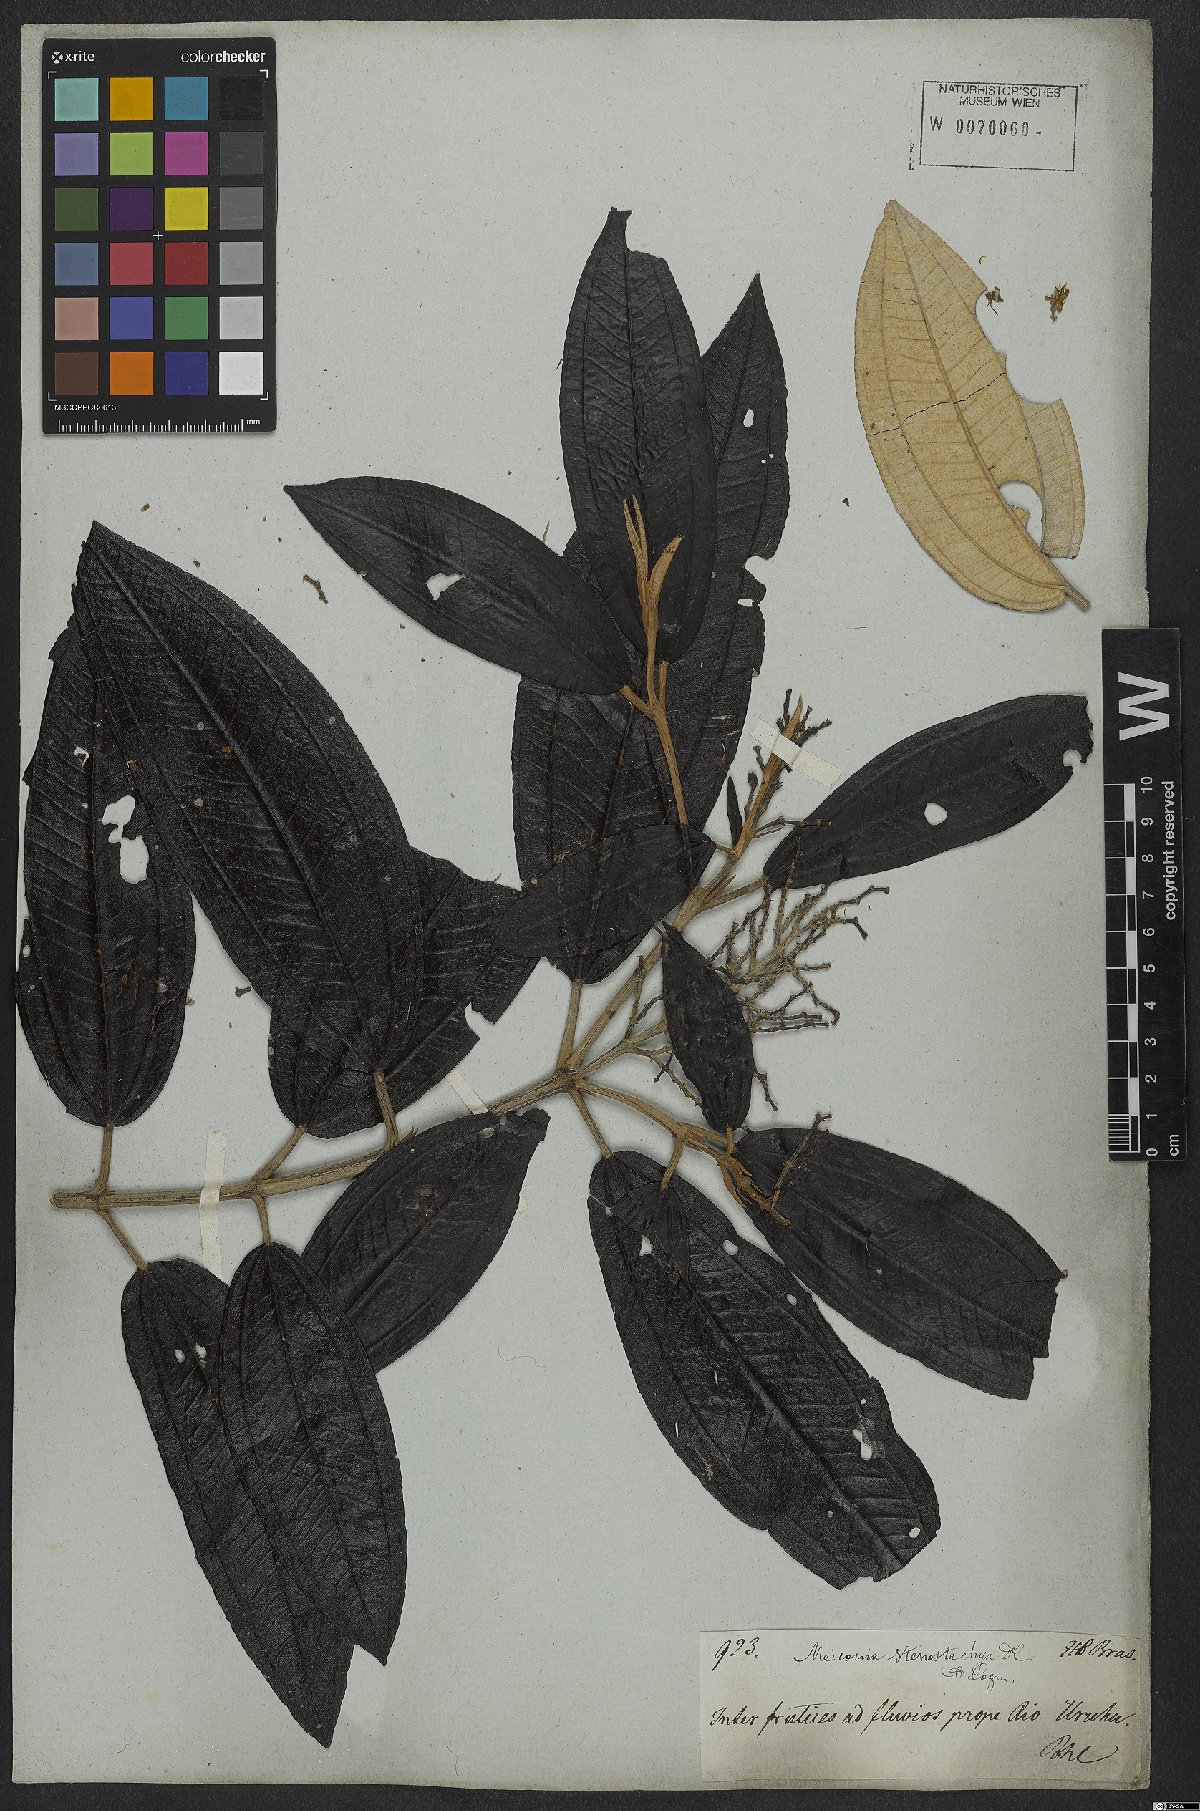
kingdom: Plantae
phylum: Tracheophyta
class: Magnoliopsida
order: Myrtales
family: Melastomataceae
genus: Miconia
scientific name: Miconia stenostachya
